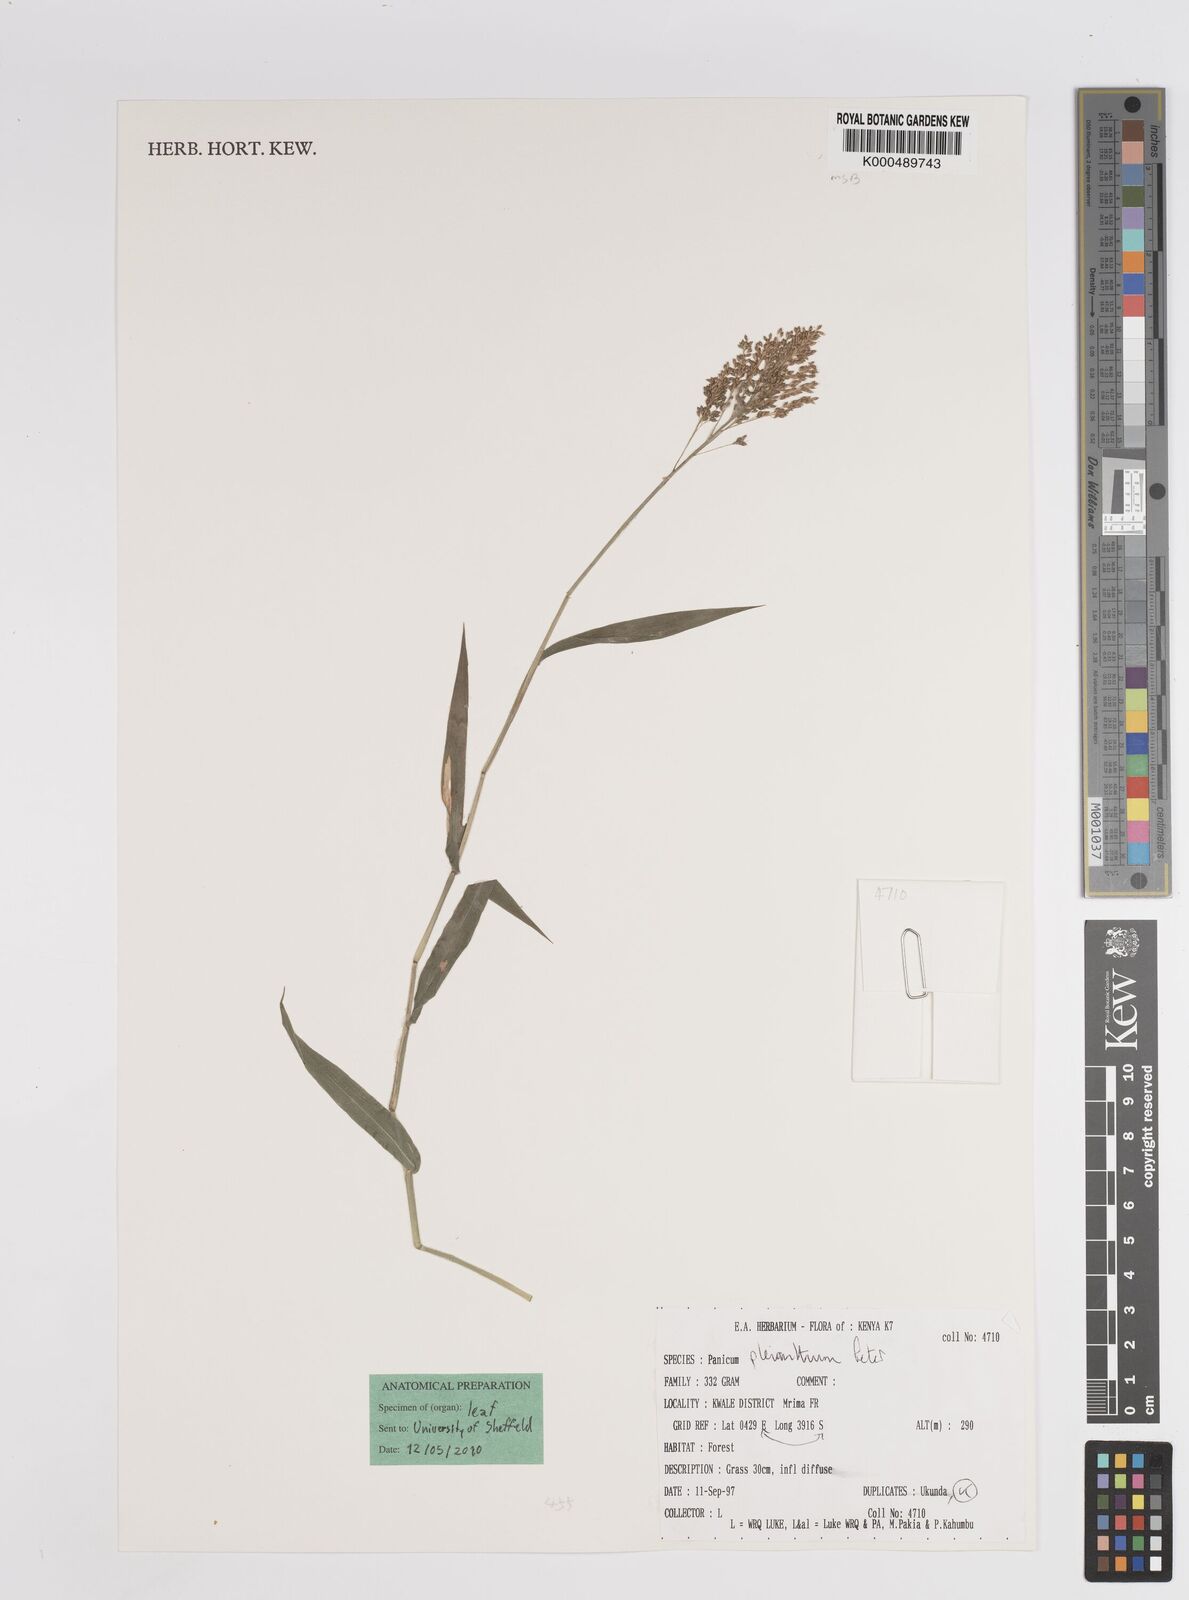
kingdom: Plantae
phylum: Tracheophyta
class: Liliopsida
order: Poales
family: Poaceae
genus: Panicum
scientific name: Panicum pleianthum
